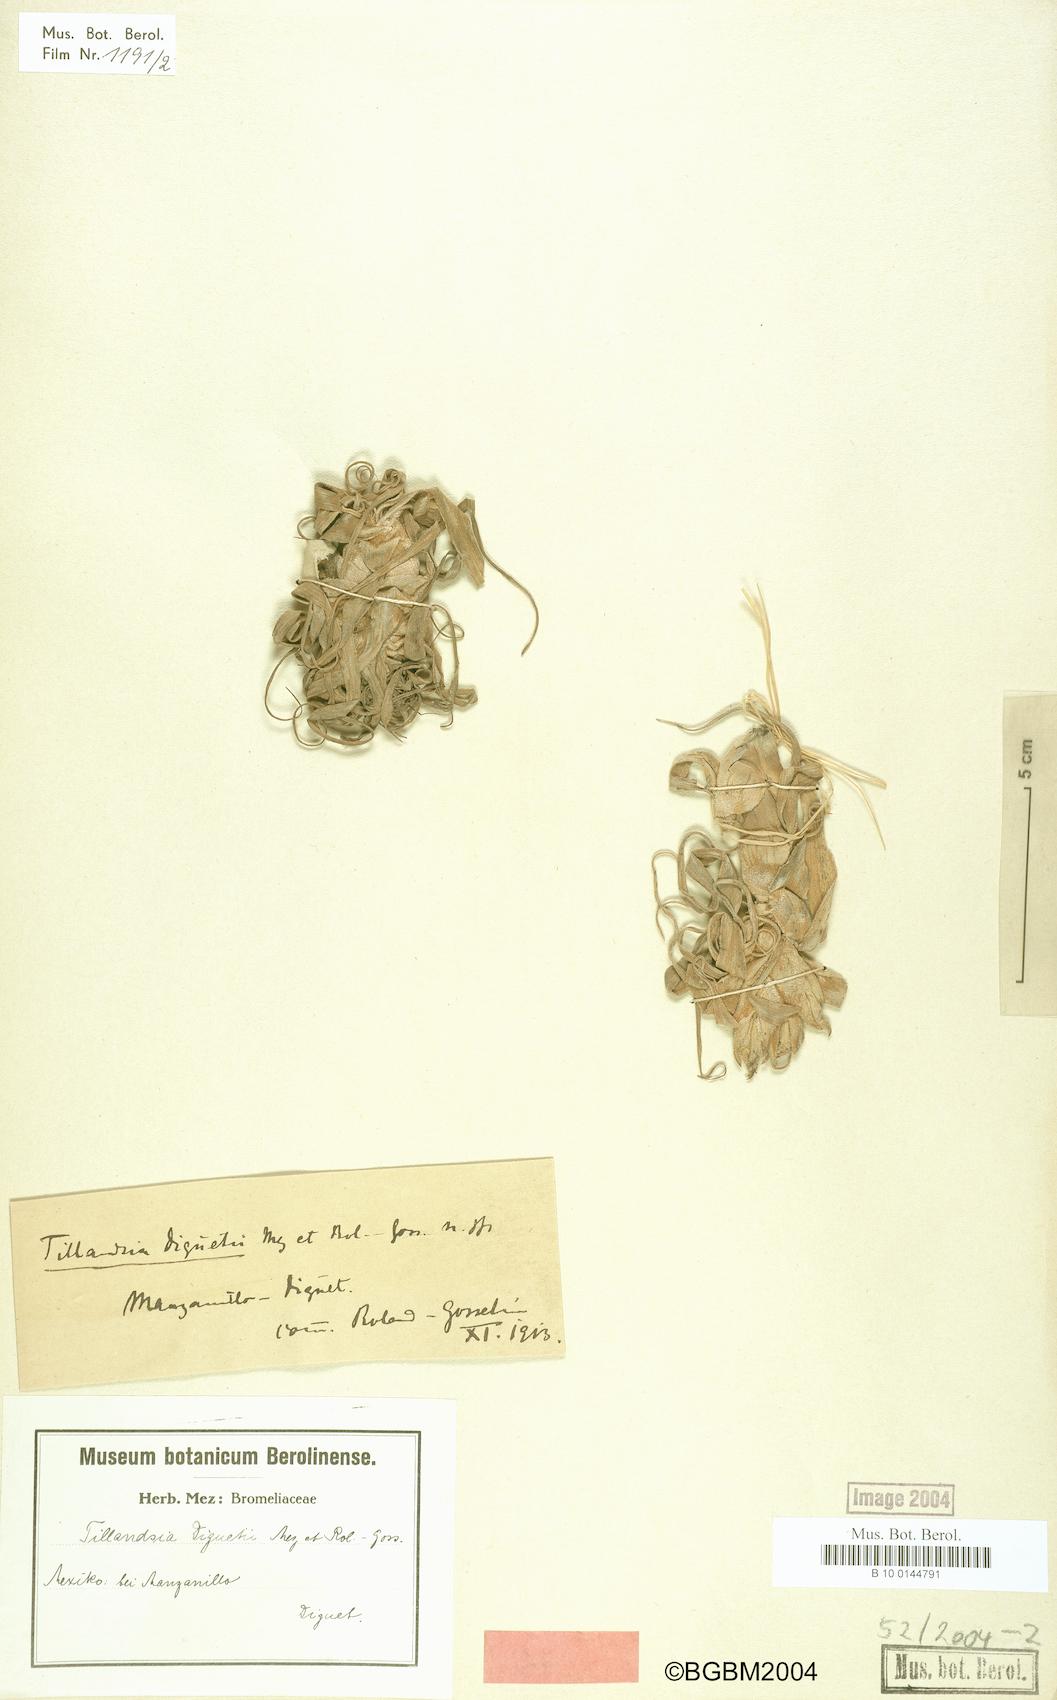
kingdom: Plantae
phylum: Tracheophyta
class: Liliopsida
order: Poales
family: Bromeliaceae
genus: Tillandsia
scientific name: Tillandsia diguetii
